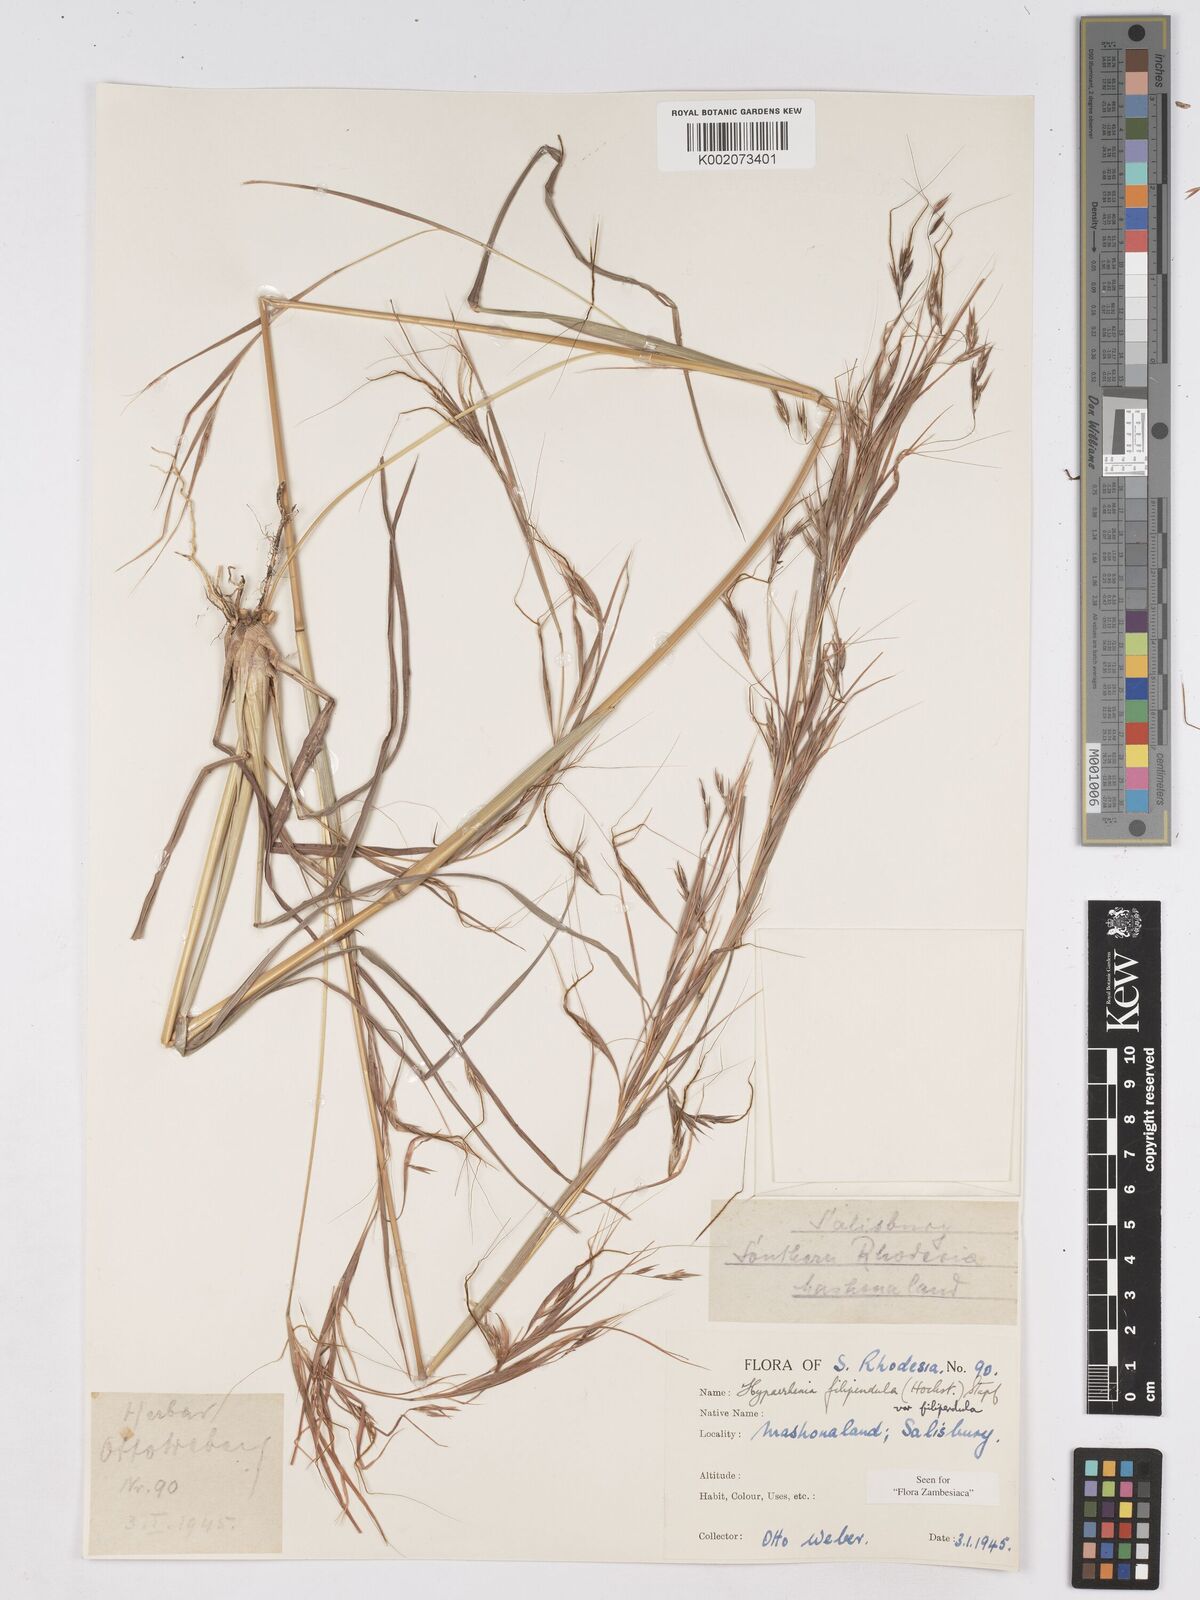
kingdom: Plantae
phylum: Tracheophyta
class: Liliopsida
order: Poales
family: Poaceae
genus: Hyparrhenia
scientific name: Hyparrhenia filipendula
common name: Tambookie grass
